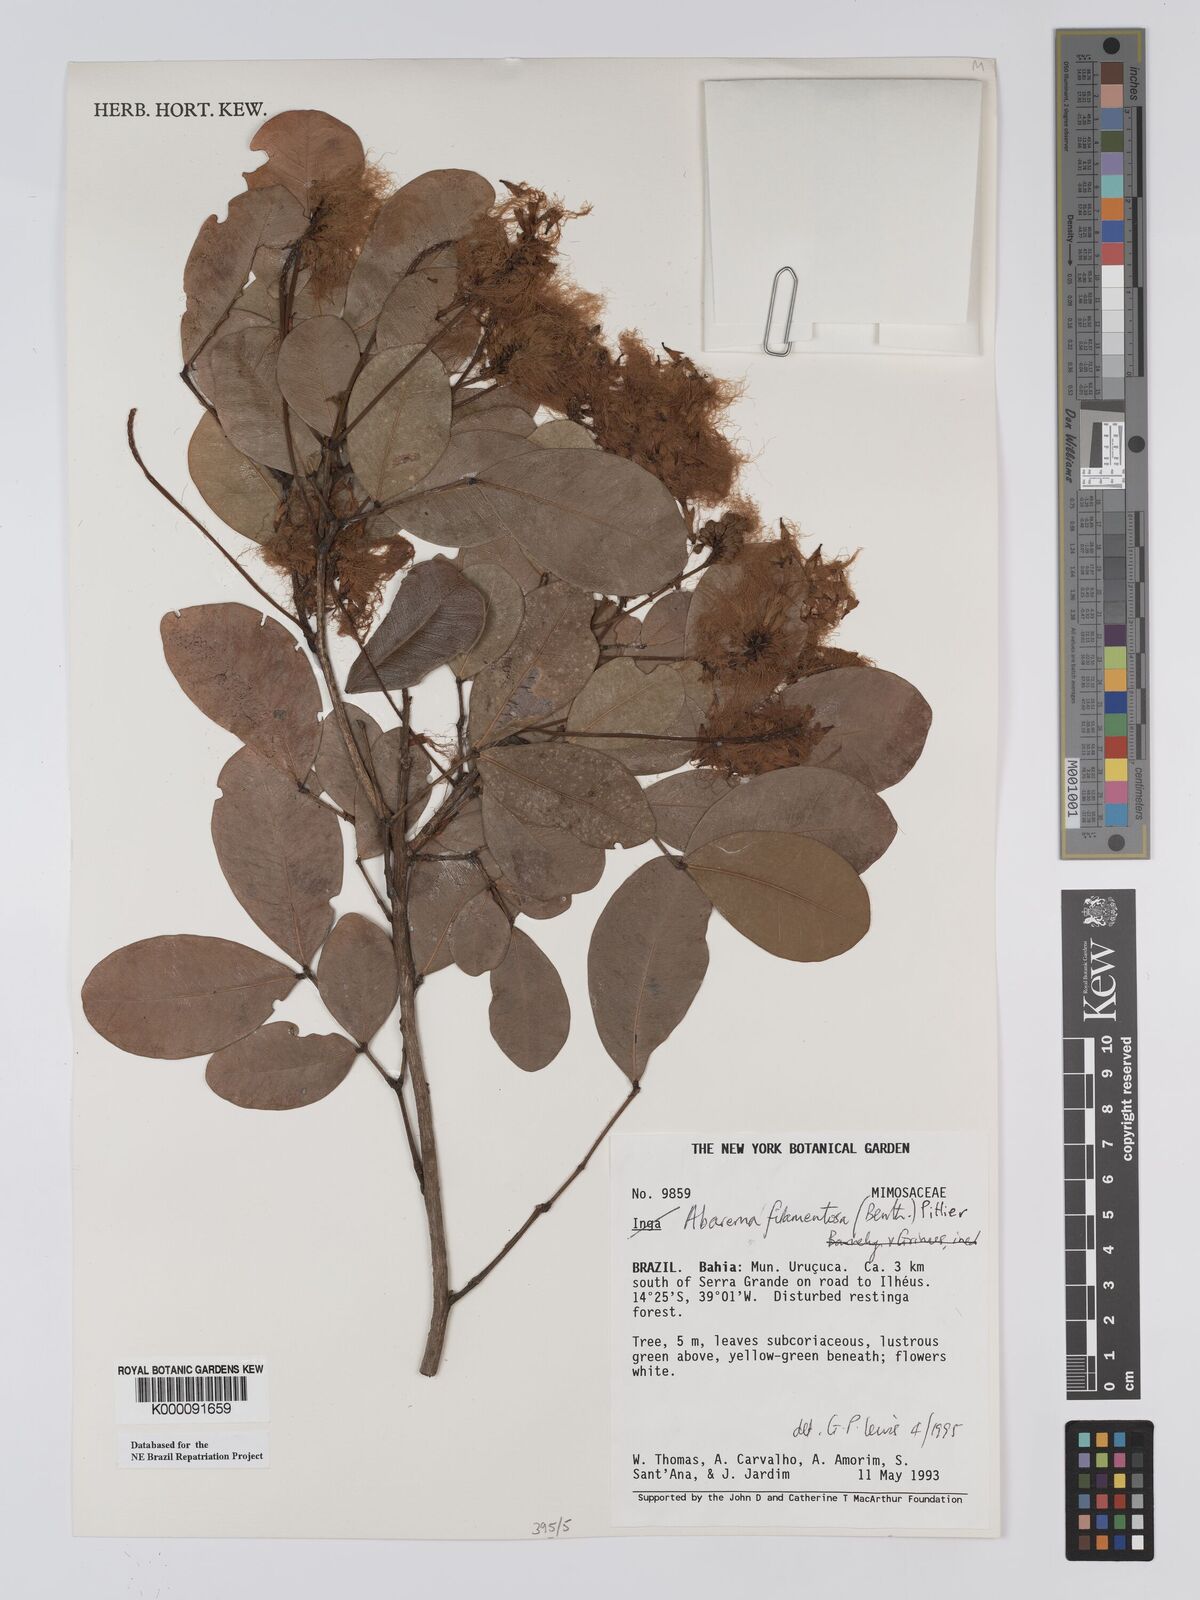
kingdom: Plantae
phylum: Tracheophyta
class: Magnoliopsida
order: Fabales
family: Fabaceae
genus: Jupunba
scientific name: Jupunba filamentosa
